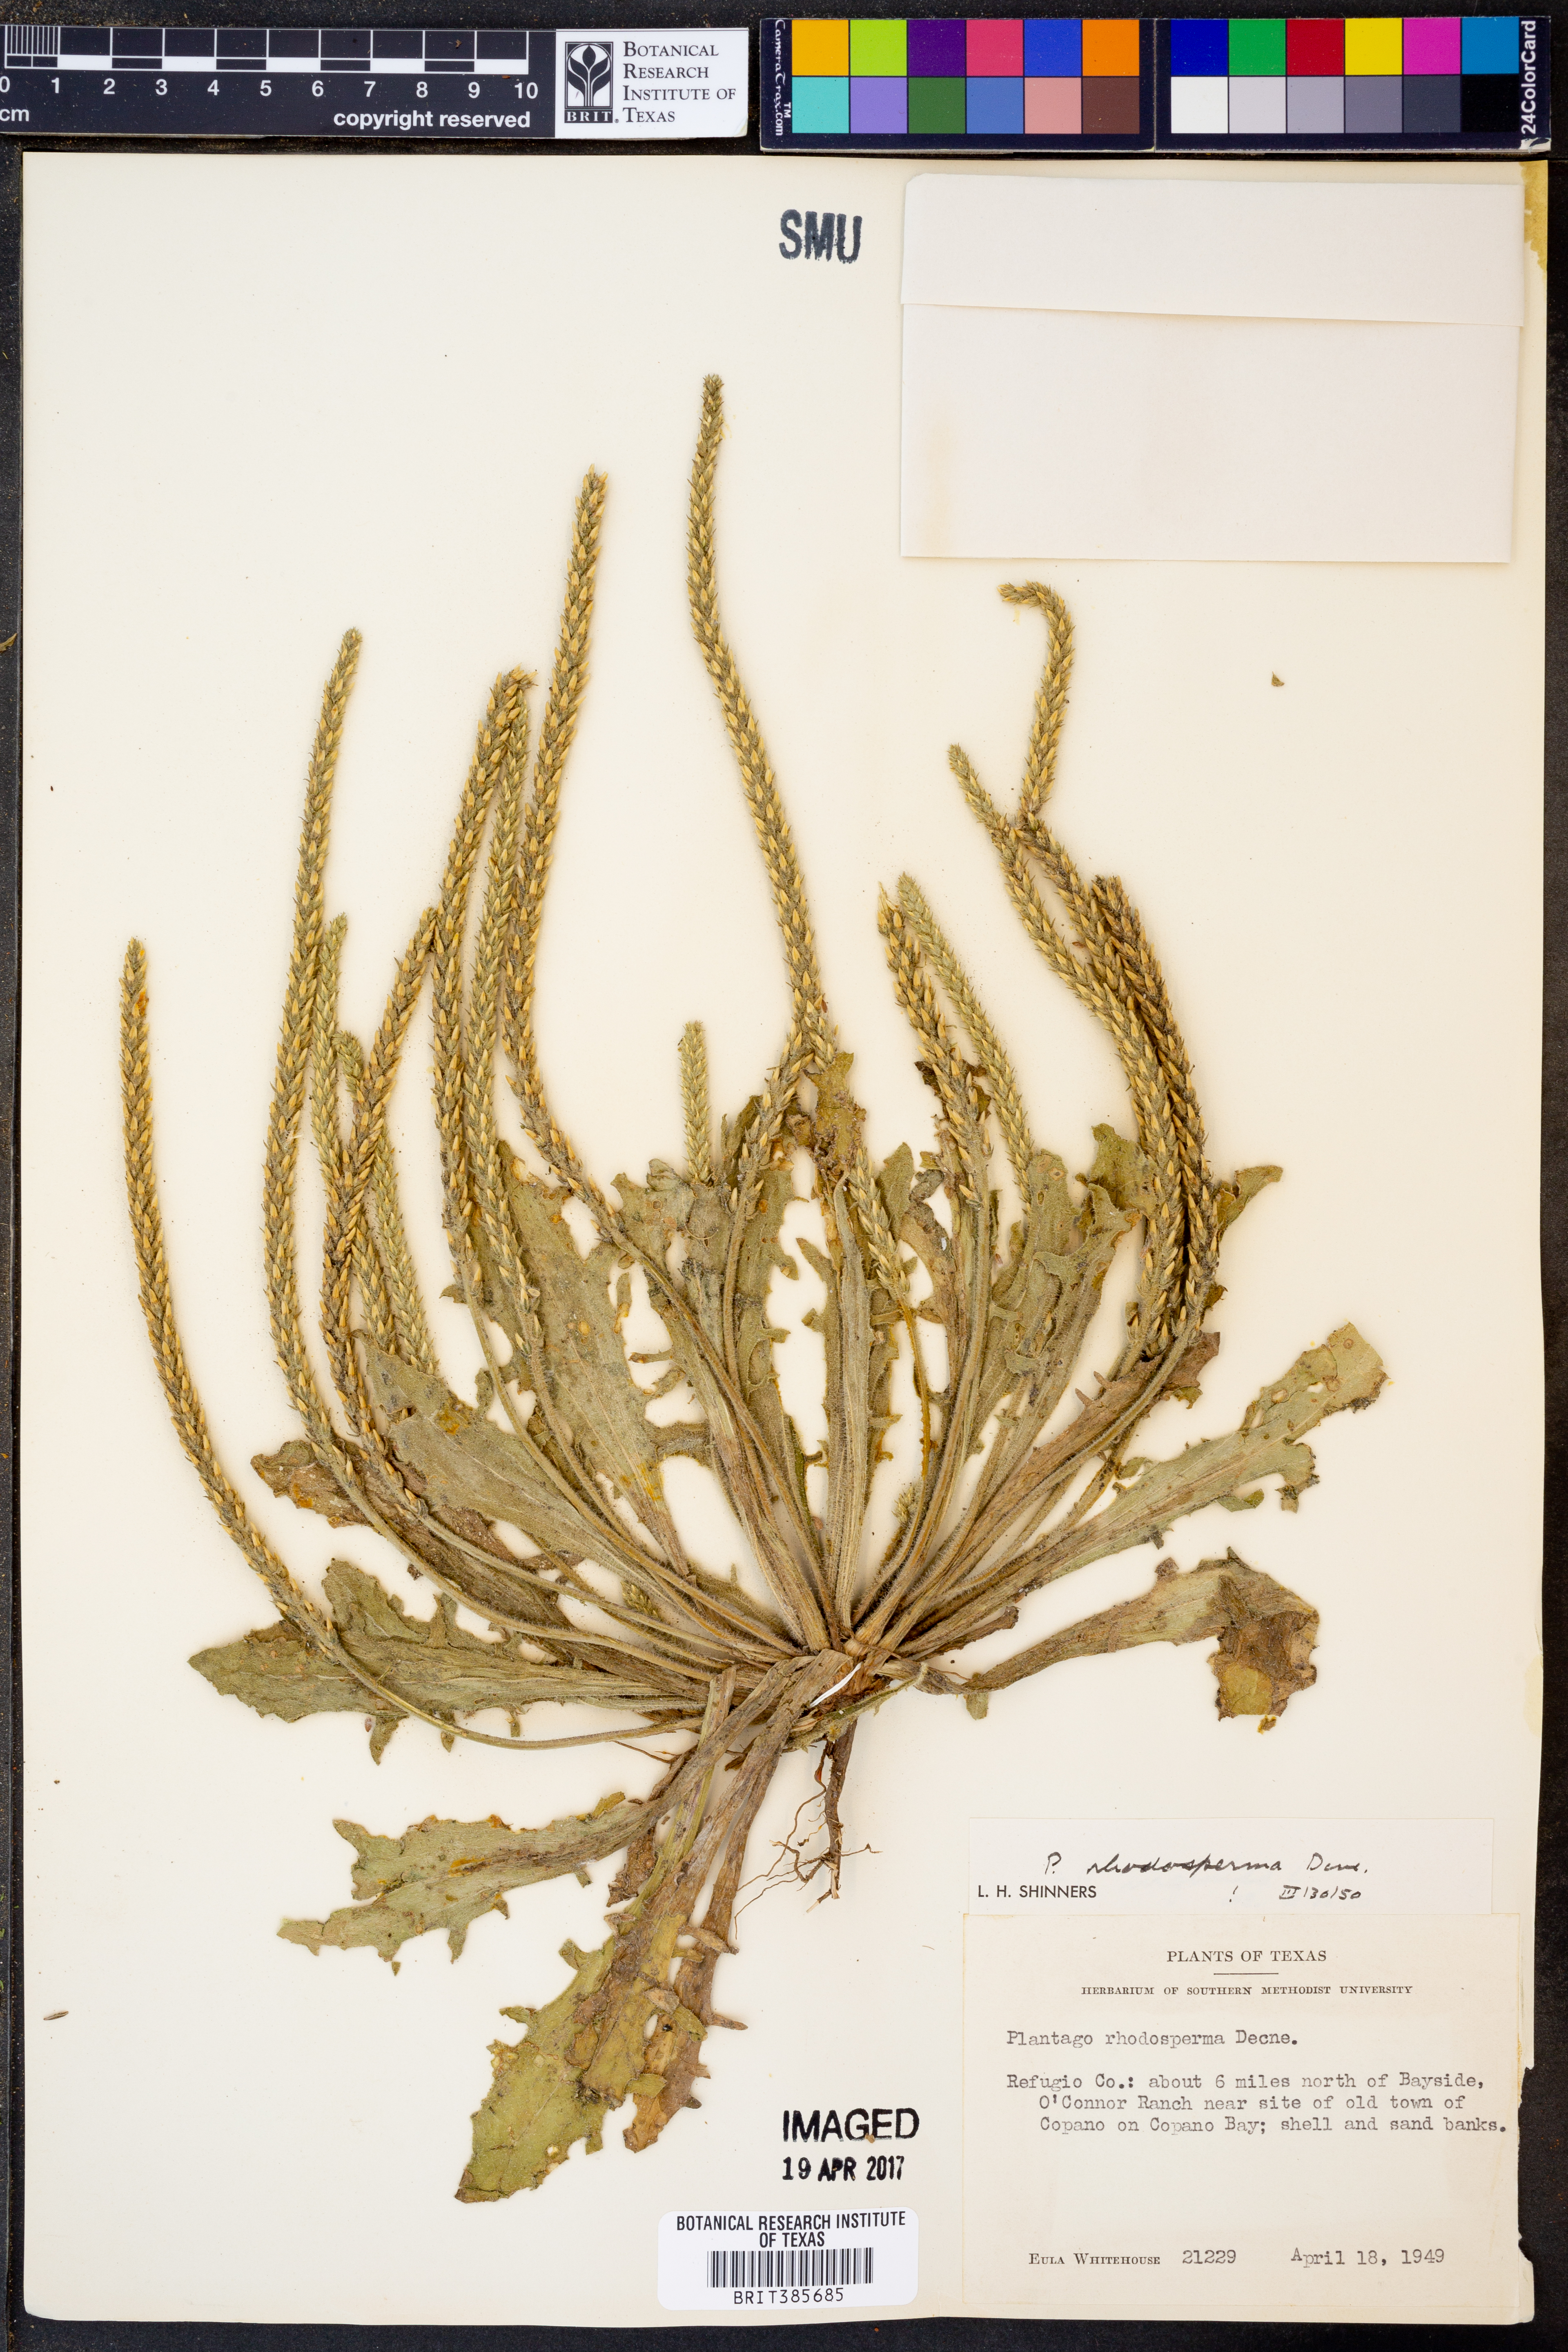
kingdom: Plantae
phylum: Tracheophyta
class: Magnoliopsida
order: Lamiales
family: Plantaginaceae
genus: Plantago
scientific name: Plantago rhodosperma
